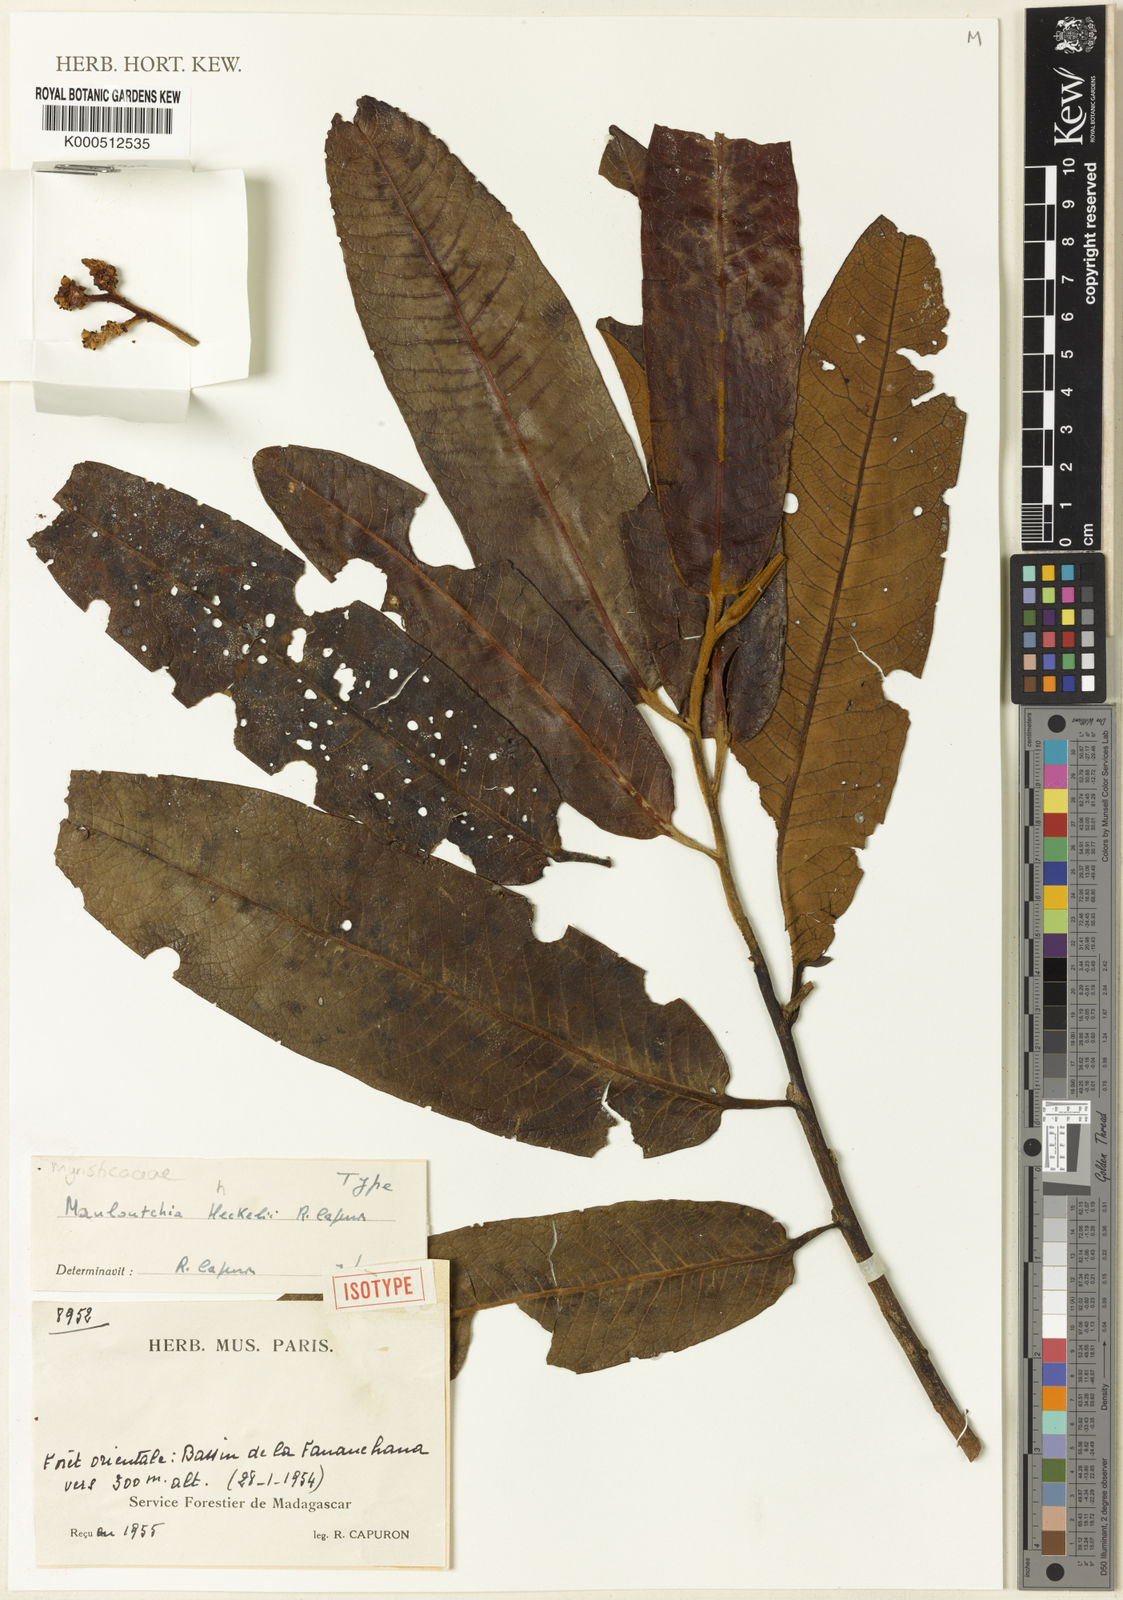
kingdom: Plantae
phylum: Tracheophyta
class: Magnoliopsida
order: Magnoliales
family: Myristicaceae
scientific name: Myristicaceae
